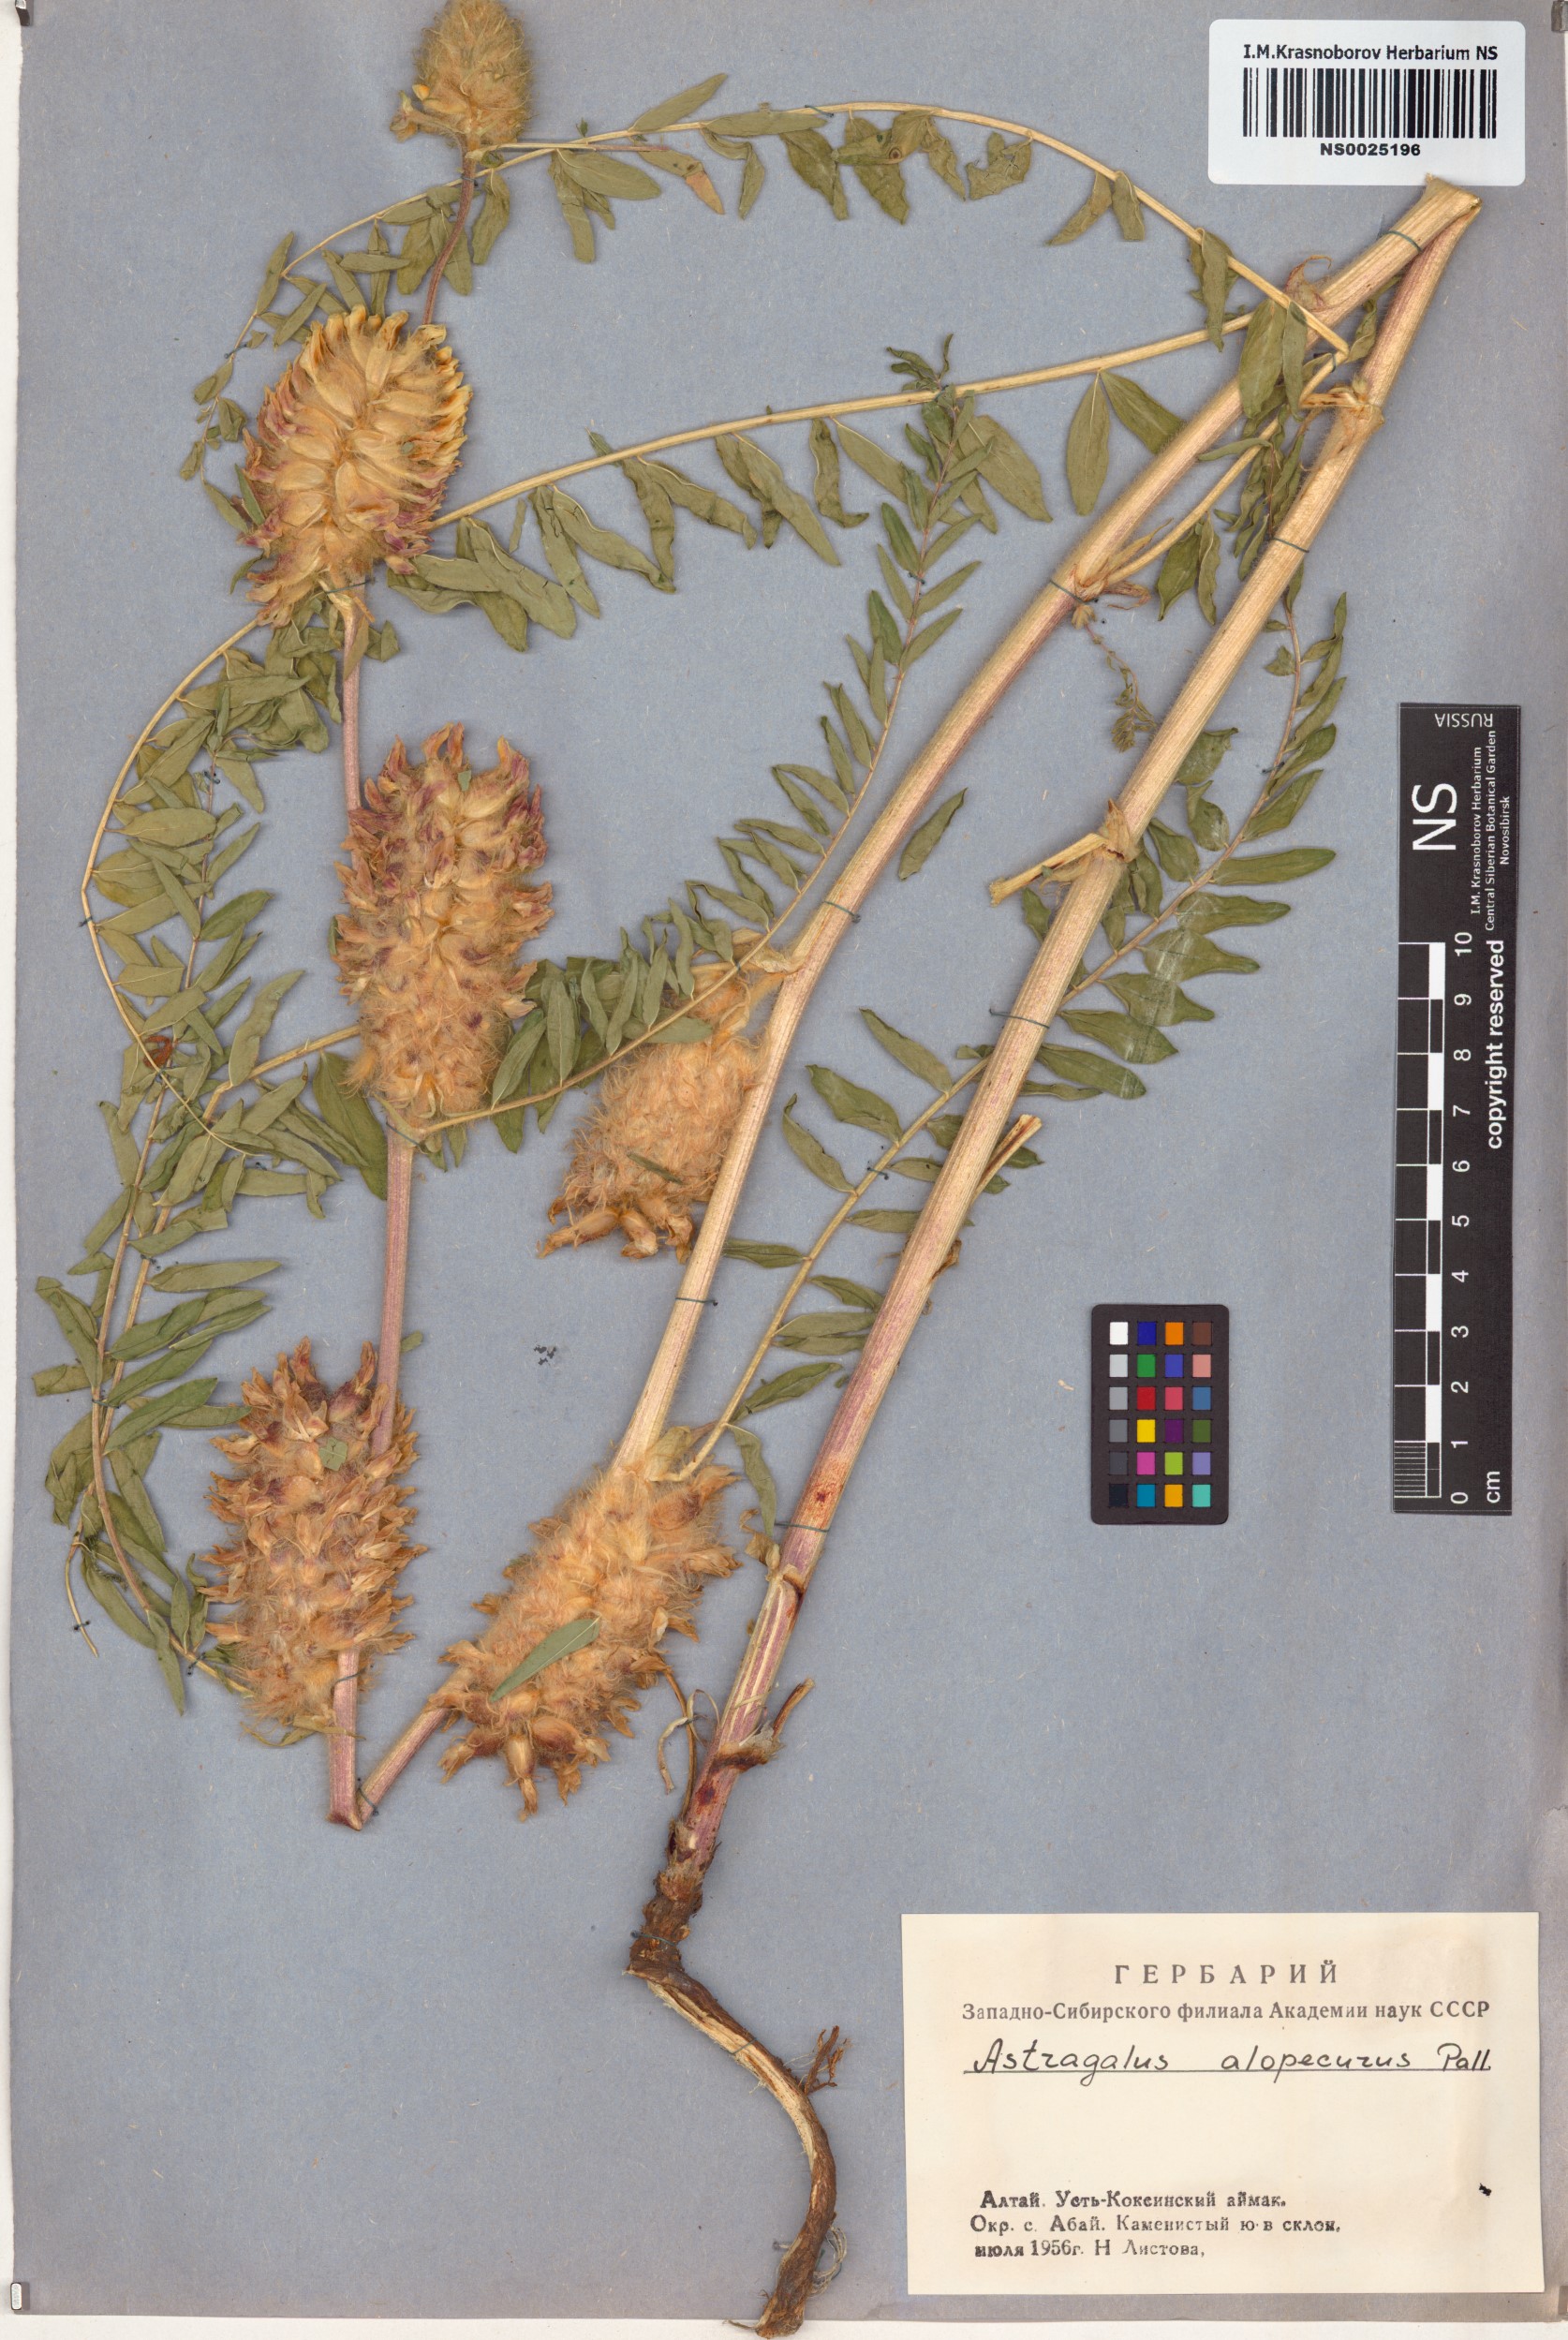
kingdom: Plantae
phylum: Tracheophyta
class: Magnoliopsida
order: Fabales
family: Fabaceae
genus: Astragalus
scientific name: Astragalus alopecurus
